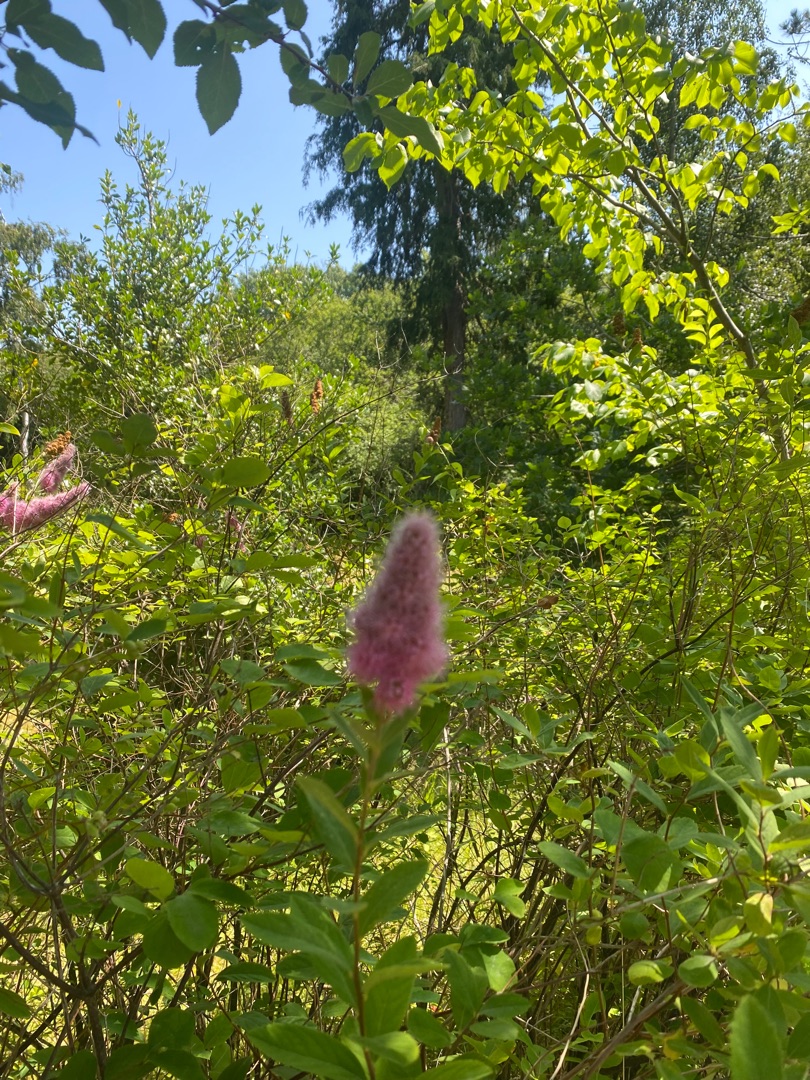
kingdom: Plantae
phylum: Tracheophyta
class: Magnoliopsida
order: Rosales
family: Rosaceae
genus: Spiraea
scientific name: Spiraea
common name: Spiræaslægten
